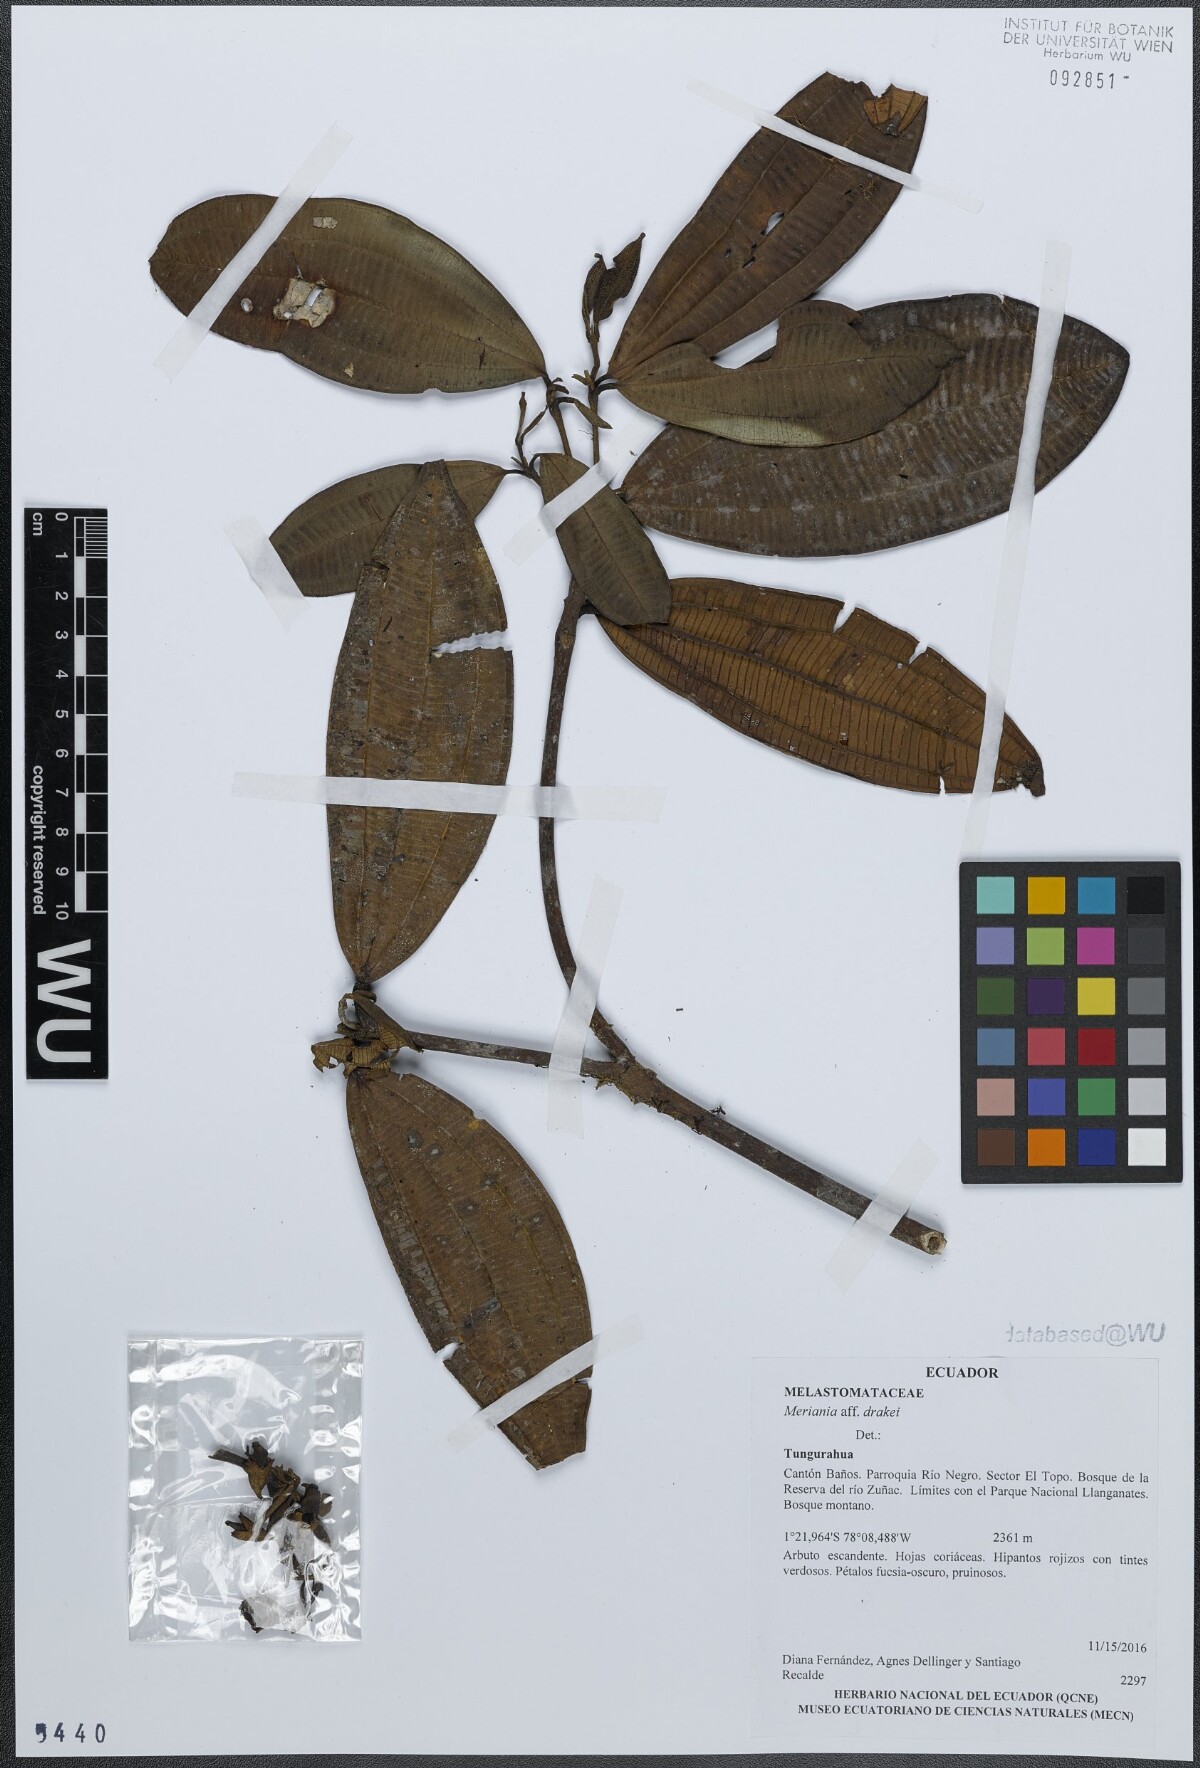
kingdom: Plantae
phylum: Tracheophyta
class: Magnoliopsida
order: Myrtales
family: Melastomataceae
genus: Meriania
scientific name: Meriania drakei
